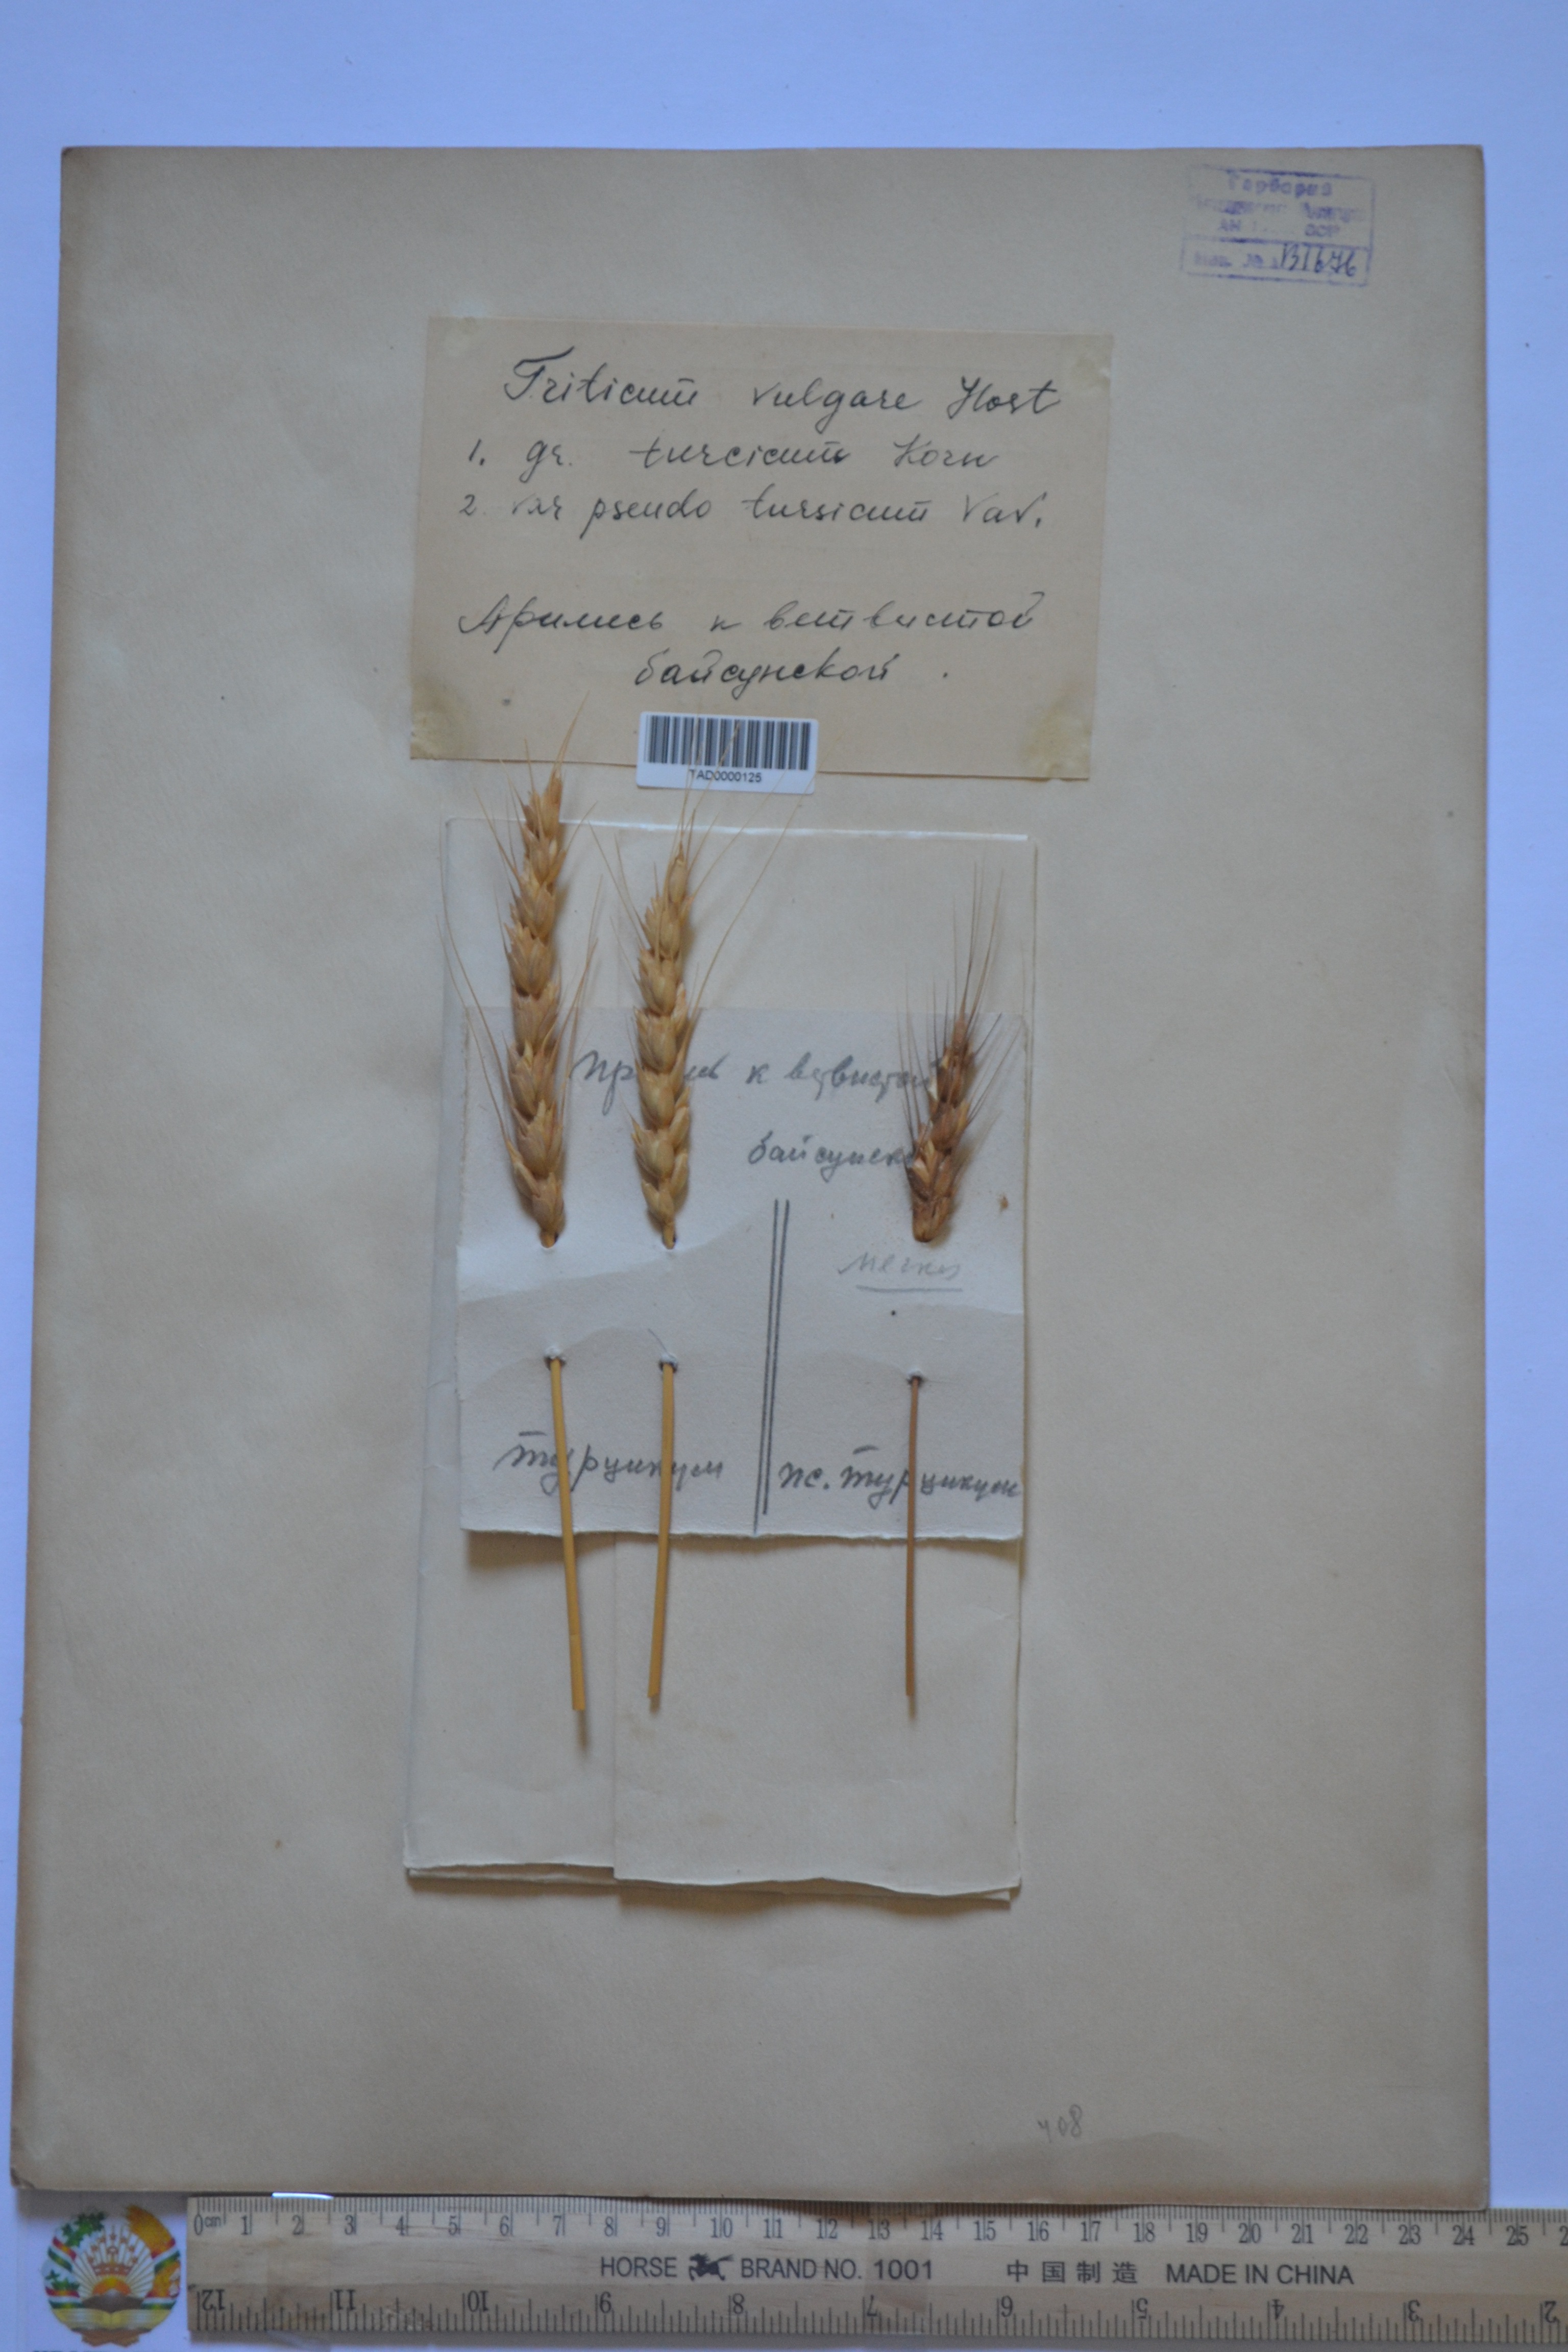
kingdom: Plantae
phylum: Tracheophyta
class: Liliopsida
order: Poales
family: Poaceae
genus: Triticum
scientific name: Triticum vulgare
